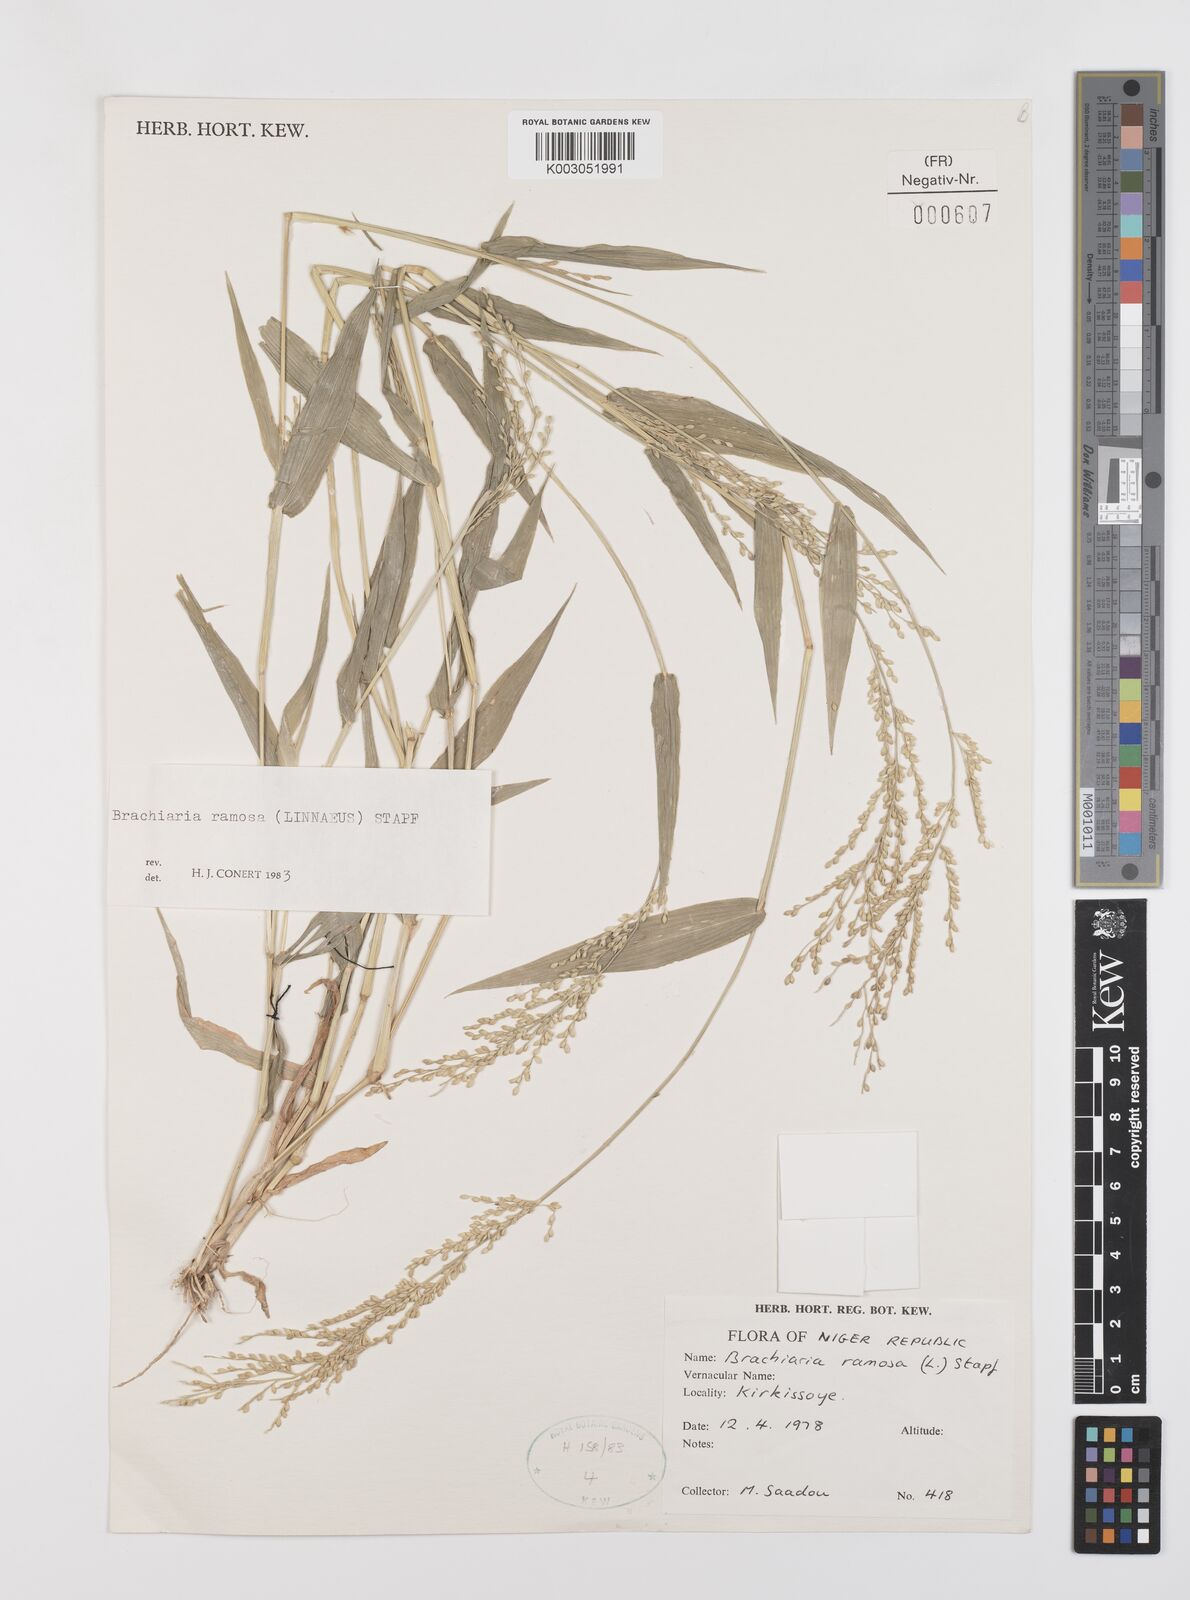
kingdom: Plantae
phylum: Tracheophyta
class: Liliopsida
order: Poales
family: Poaceae
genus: Urochloa
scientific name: Urochloa ramosa
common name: Browntop millet
